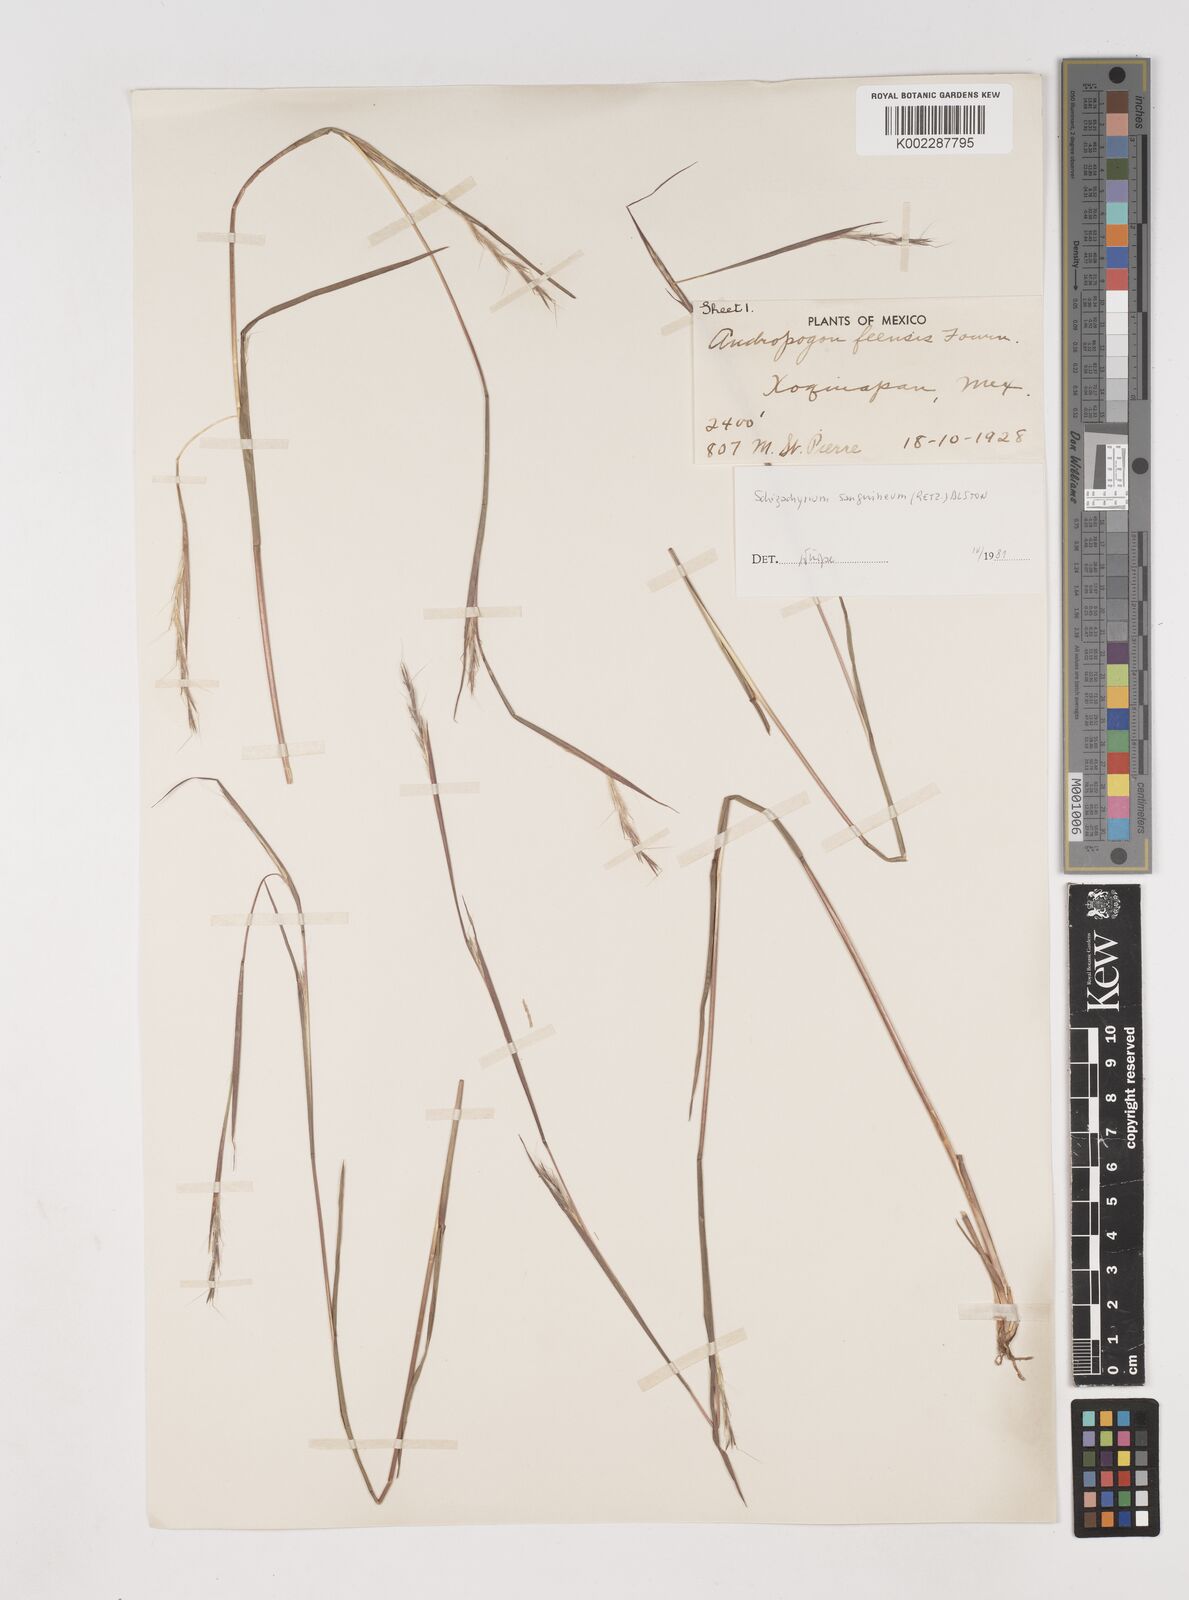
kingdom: Plantae
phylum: Tracheophyta
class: Liliopsida
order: Poales
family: Poaceae
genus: Schizachyrium
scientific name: Schizachyrium sanguineum
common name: Crimson bluestem
